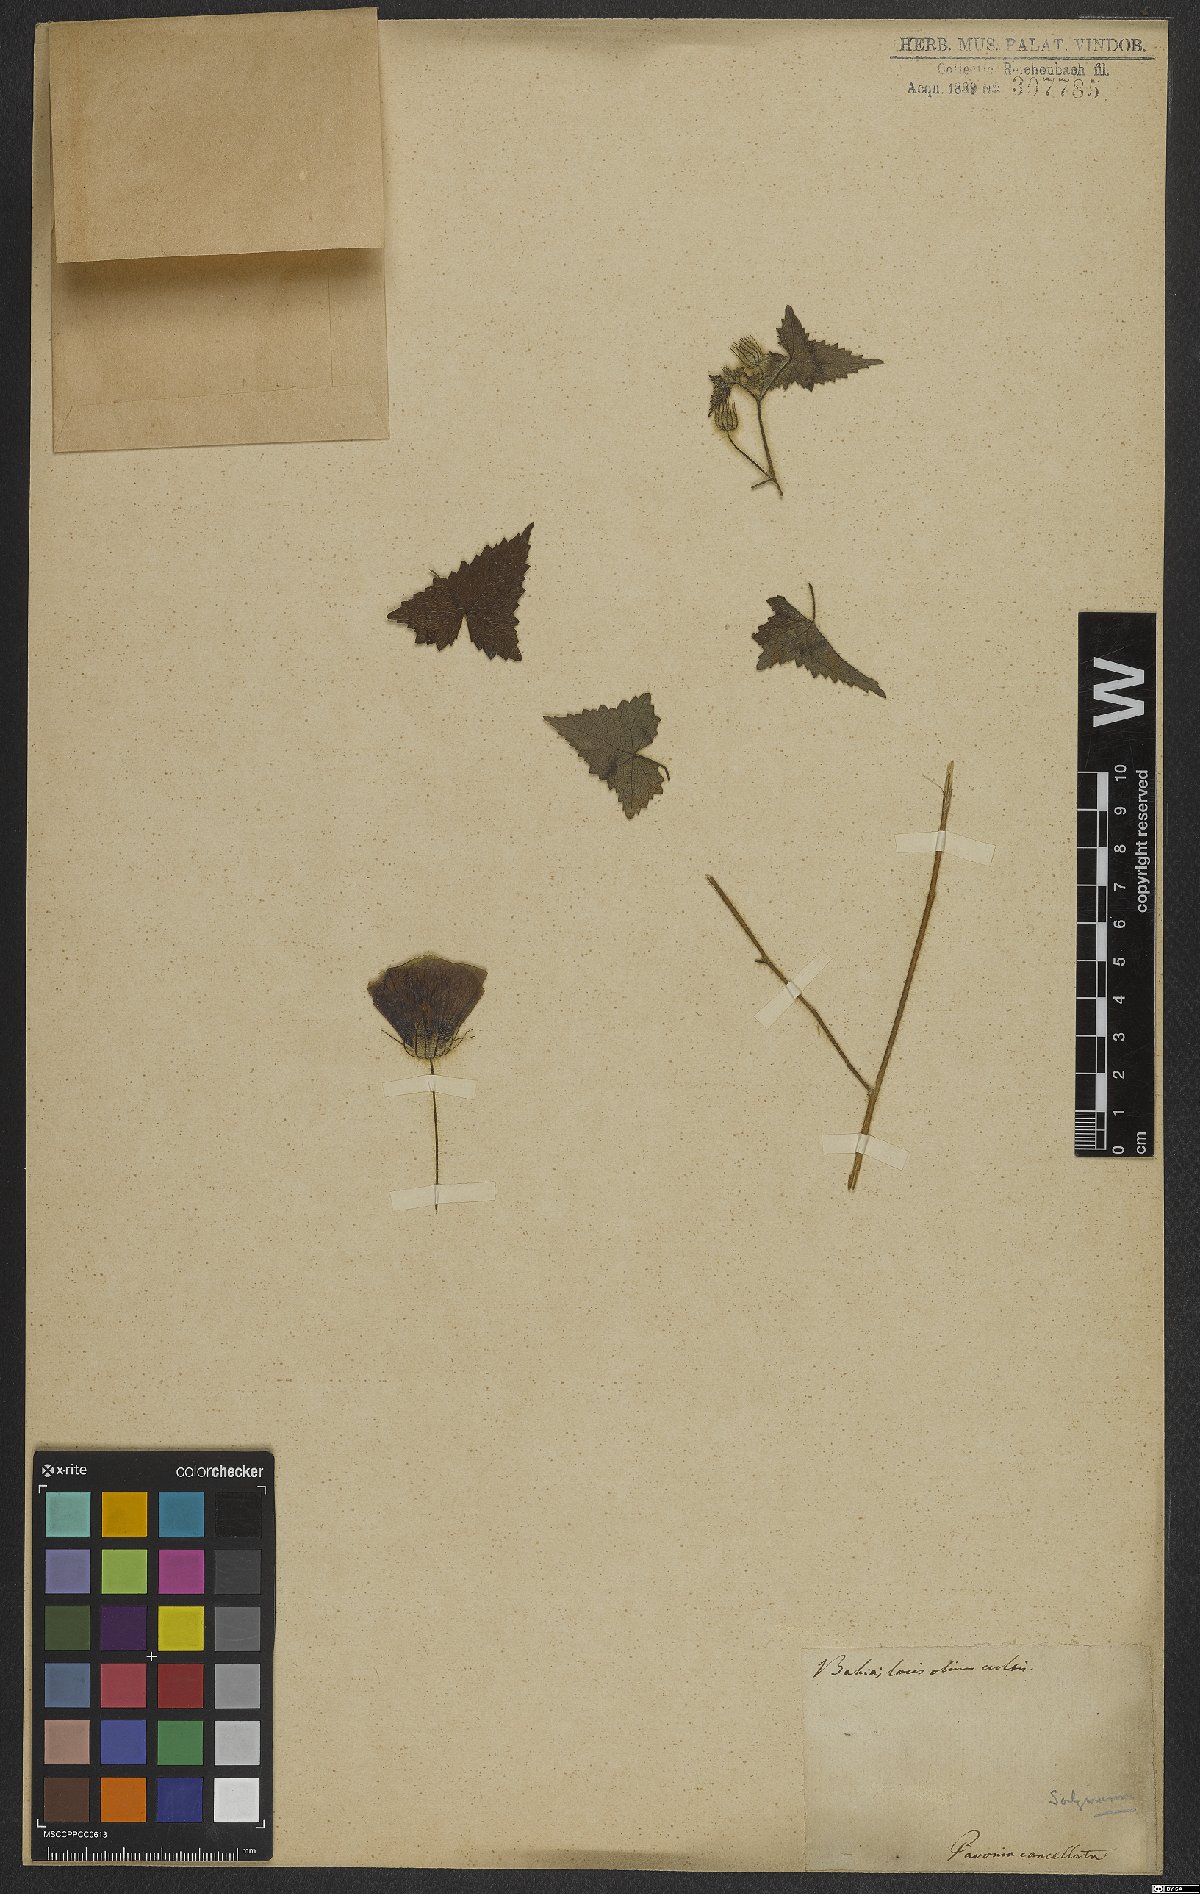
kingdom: Plantae
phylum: Tracheophyta
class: Magnoliopsida
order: Malvales
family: Malvaceae
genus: Pavonia
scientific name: Pavonia cancellata
